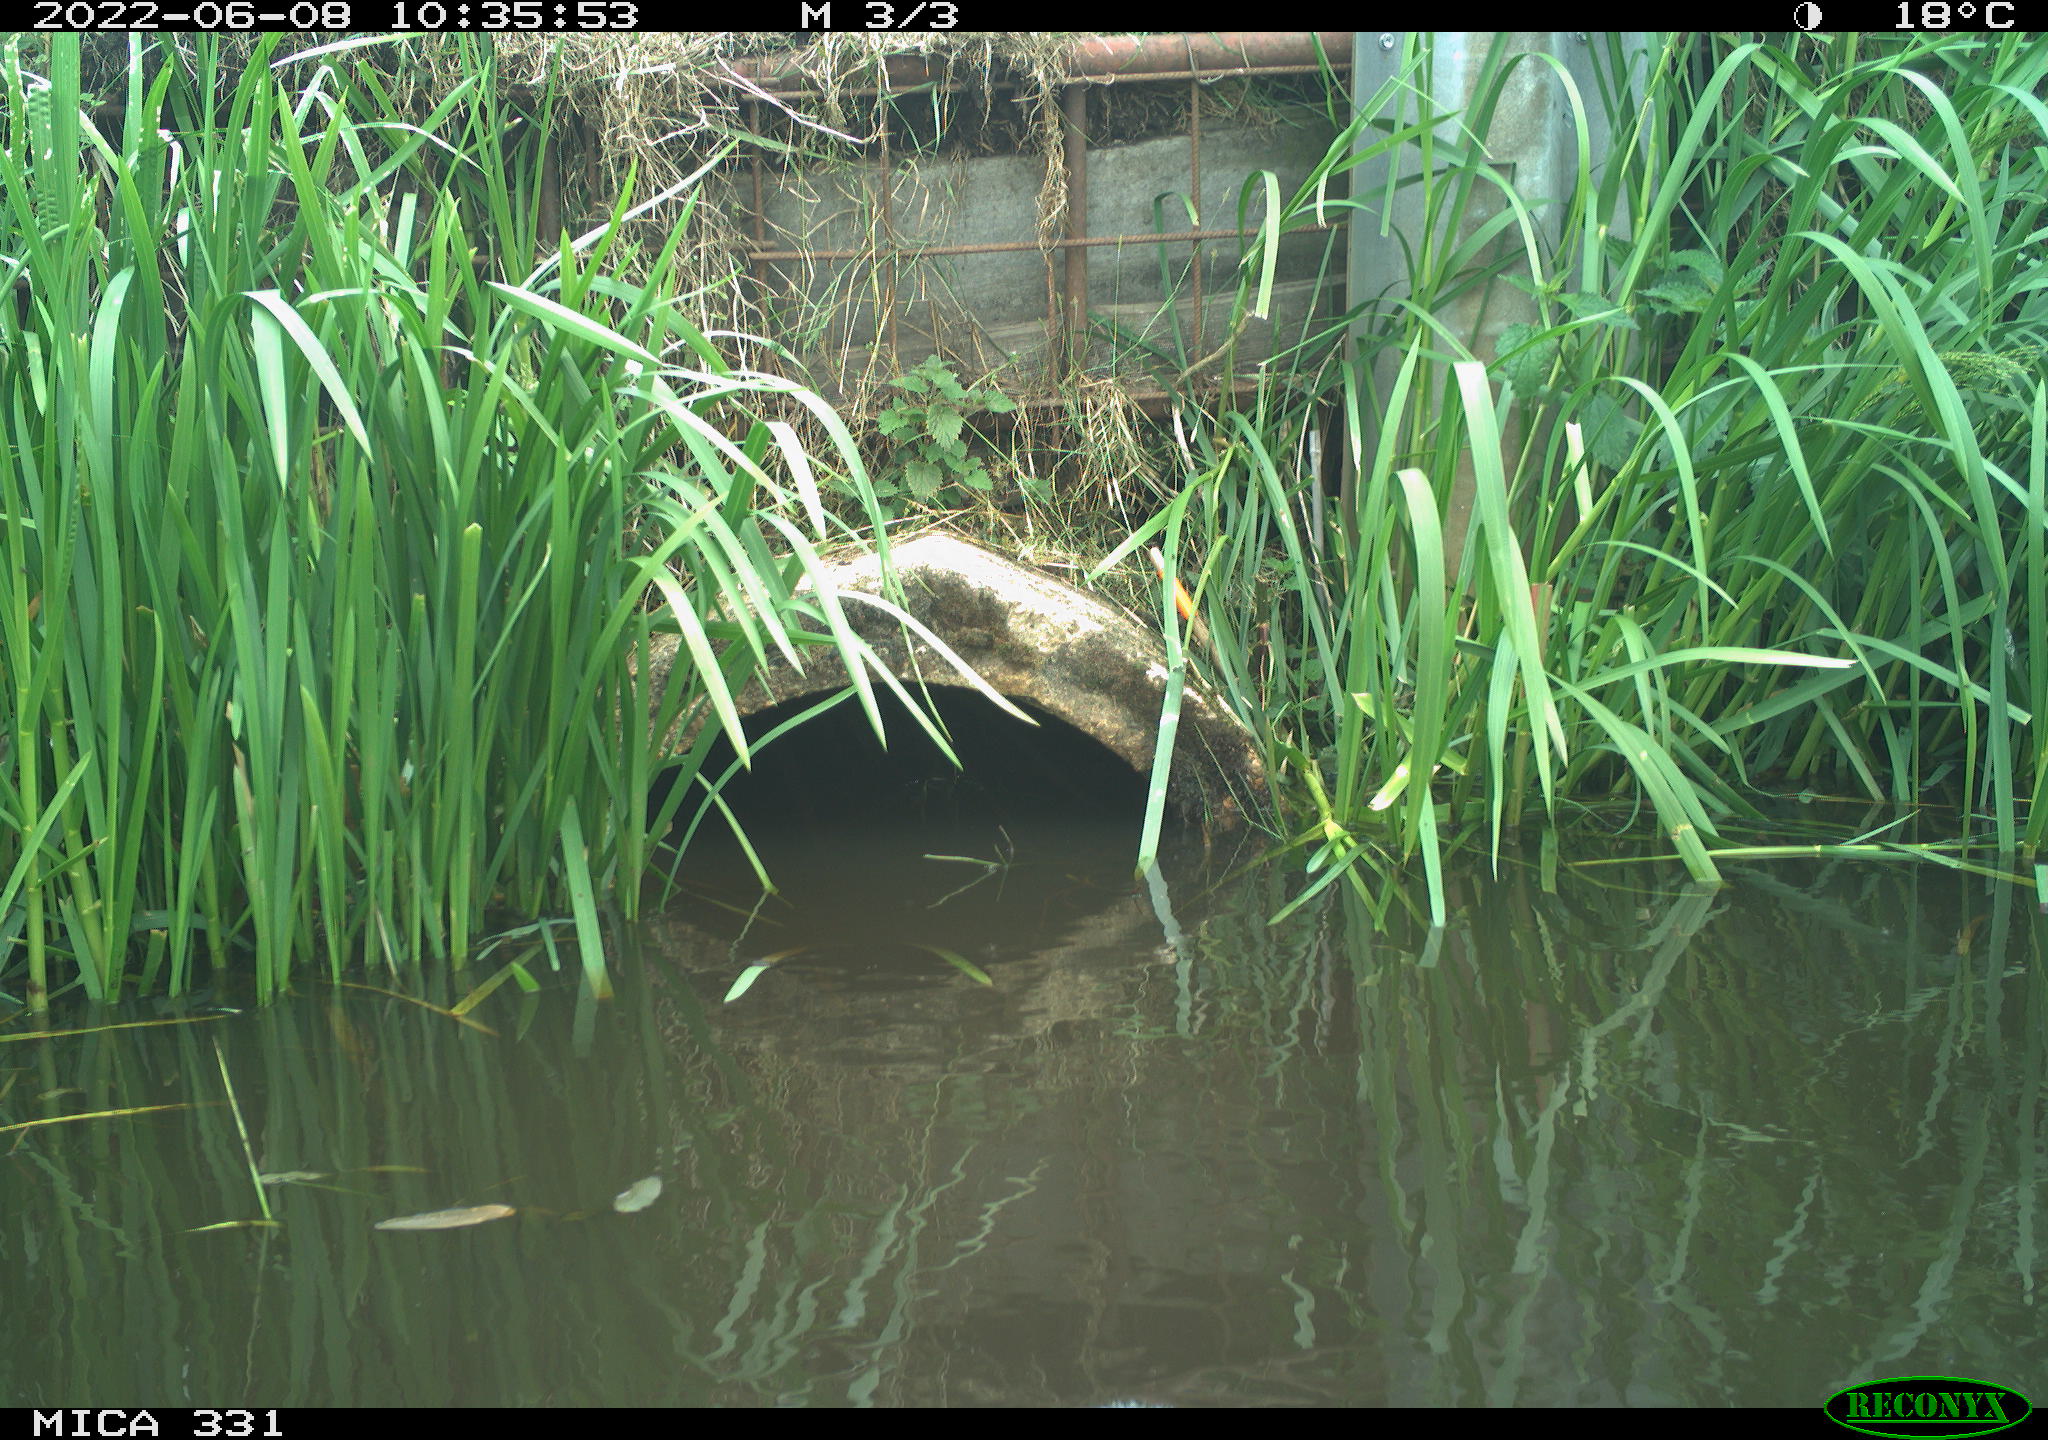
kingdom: Animalia
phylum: Chordata
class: Aves
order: Gruiformes
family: Rallidae
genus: Fulica
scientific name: Fulica atra
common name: Eurasian coot
